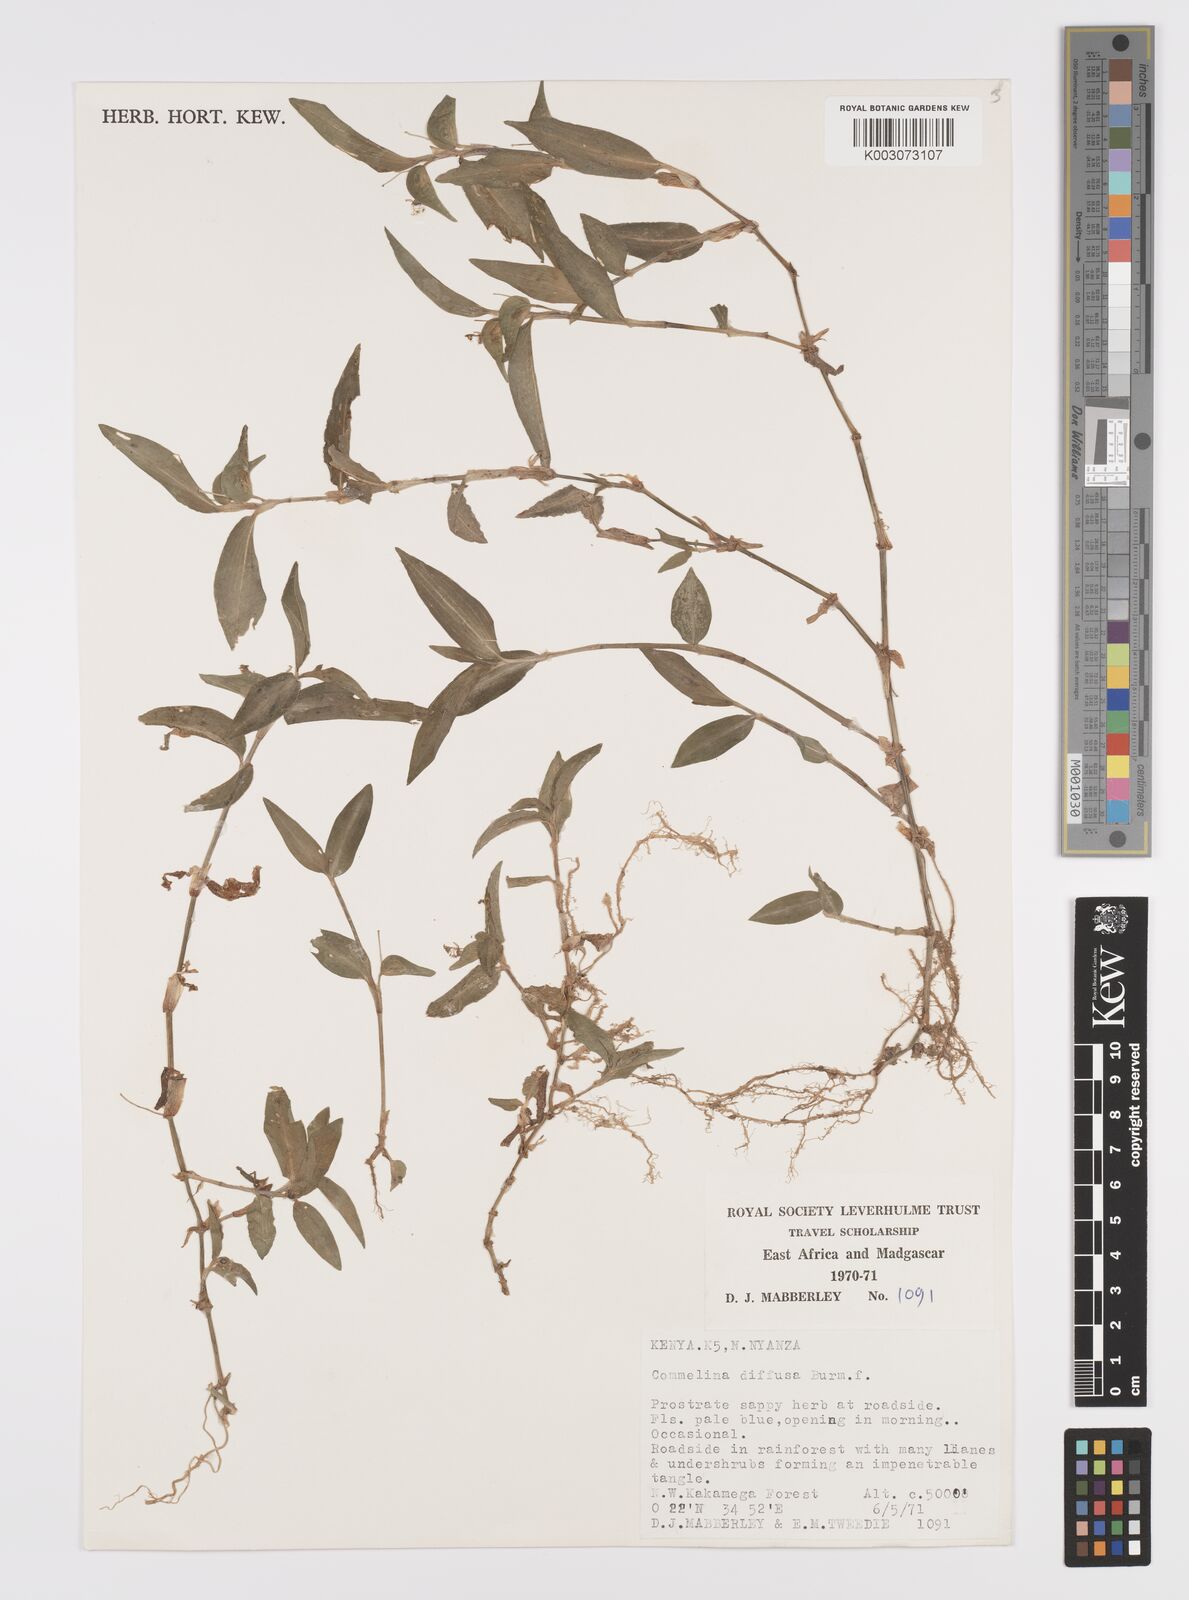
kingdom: Plantae
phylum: Tracheophyta
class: Liliopsida
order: Commelinales
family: Commelinaceae
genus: Commelina
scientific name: Commelina diffusa
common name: Climbing dayflower
